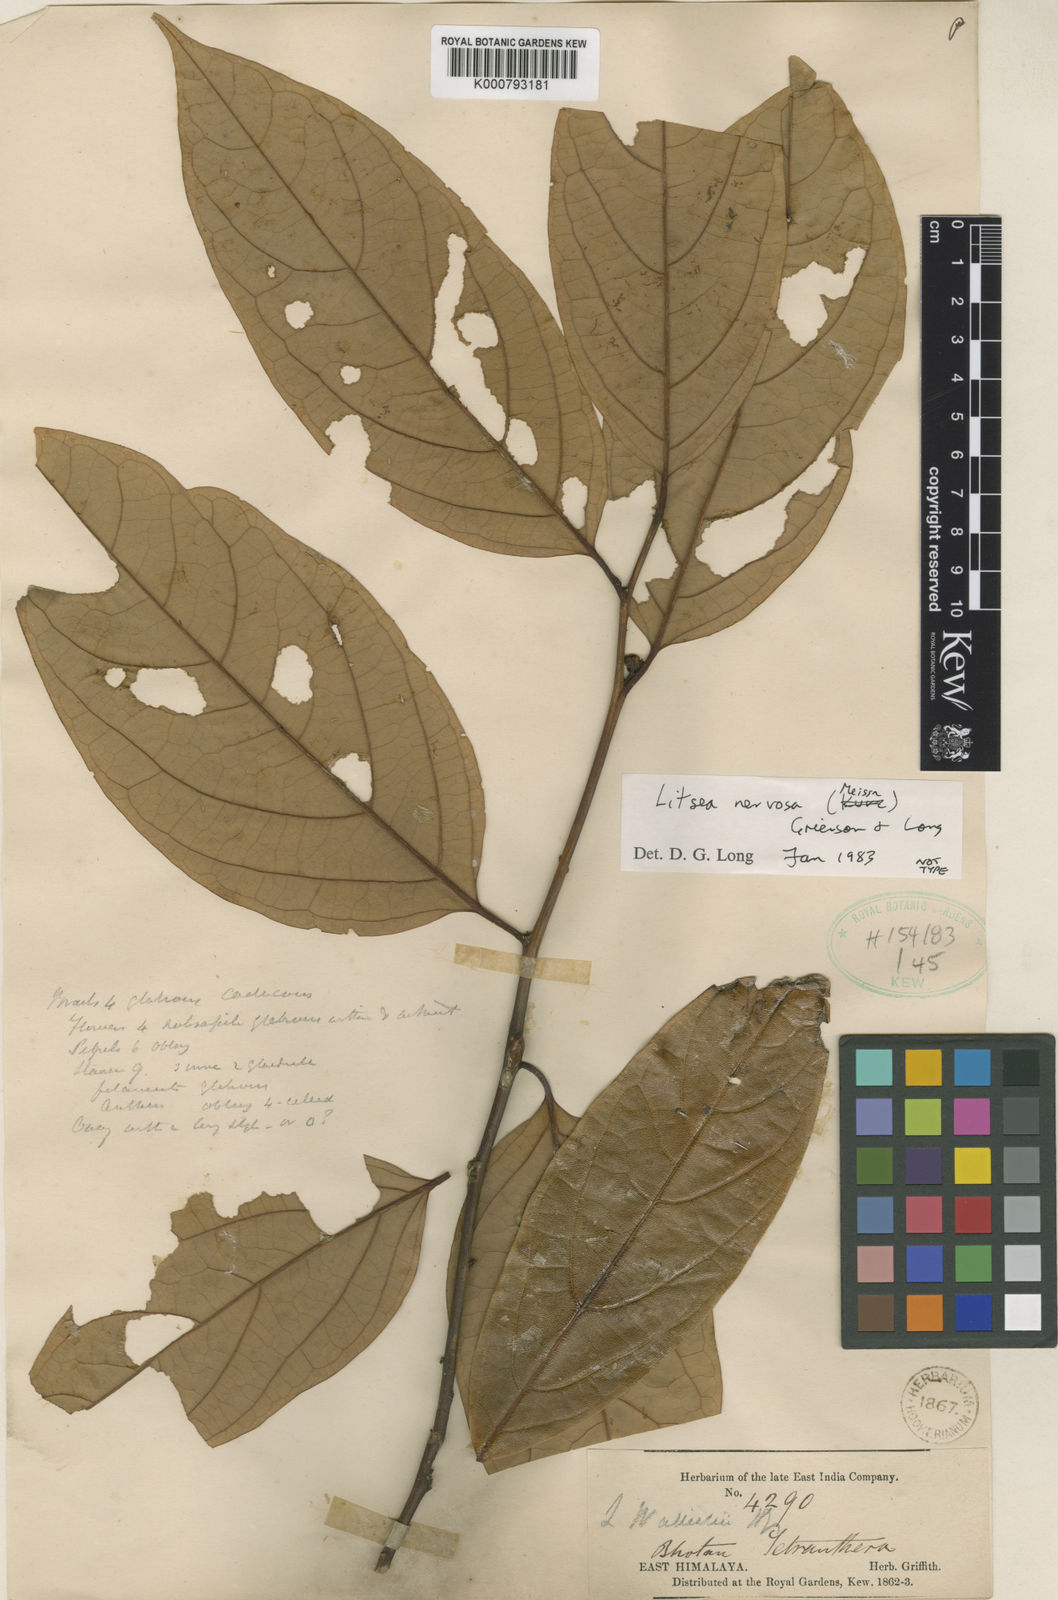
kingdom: Plantae
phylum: Tracheophyta
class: Magnoliopsida
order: Laurales
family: Lauraceae
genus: Litsea
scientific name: Litsea nervosa
